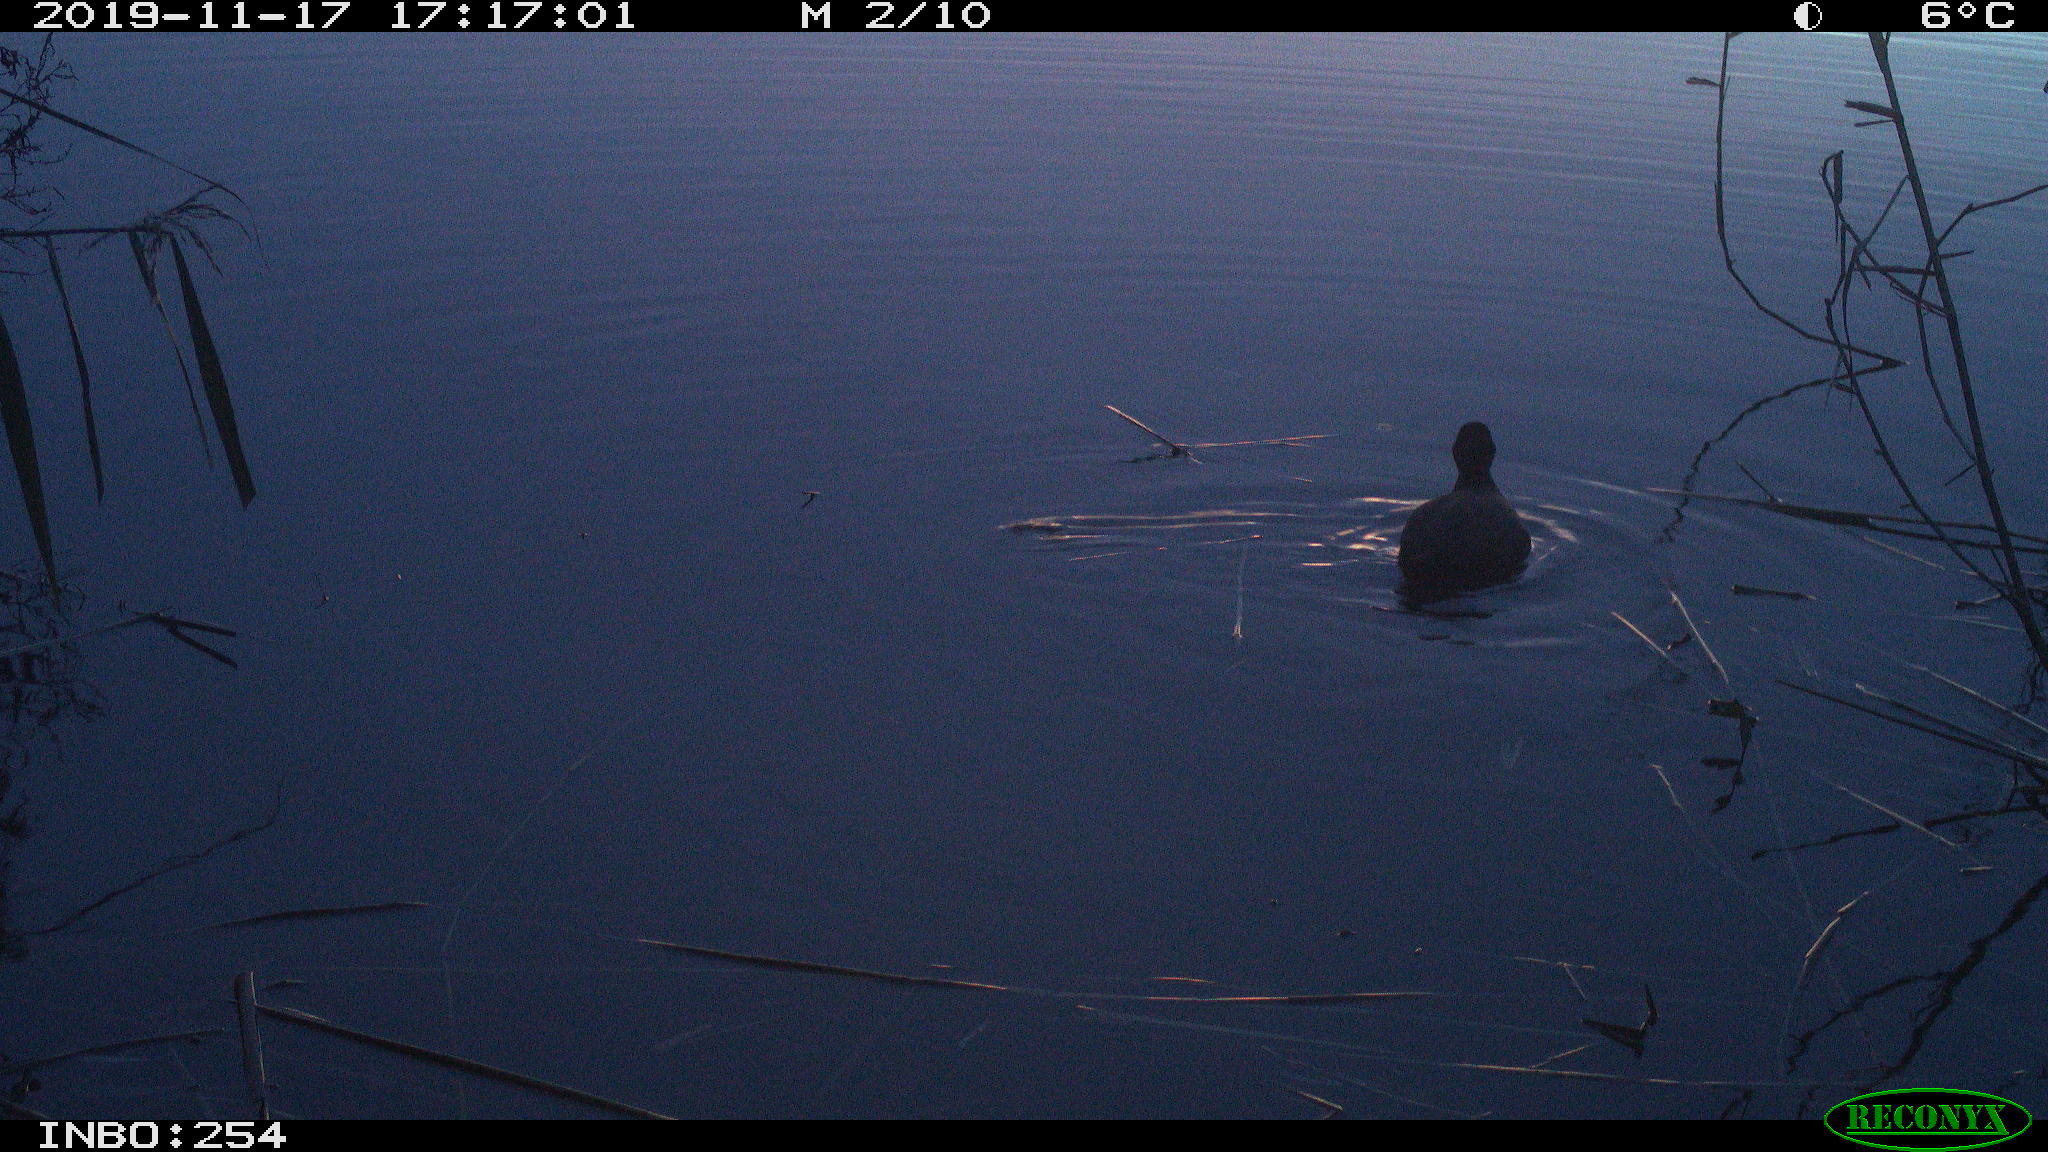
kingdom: Animalia
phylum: Chordata
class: Aves
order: Gruiformes
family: Rallidae
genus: Gallinula
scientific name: Gallinula chloropus
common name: Common moorhen
